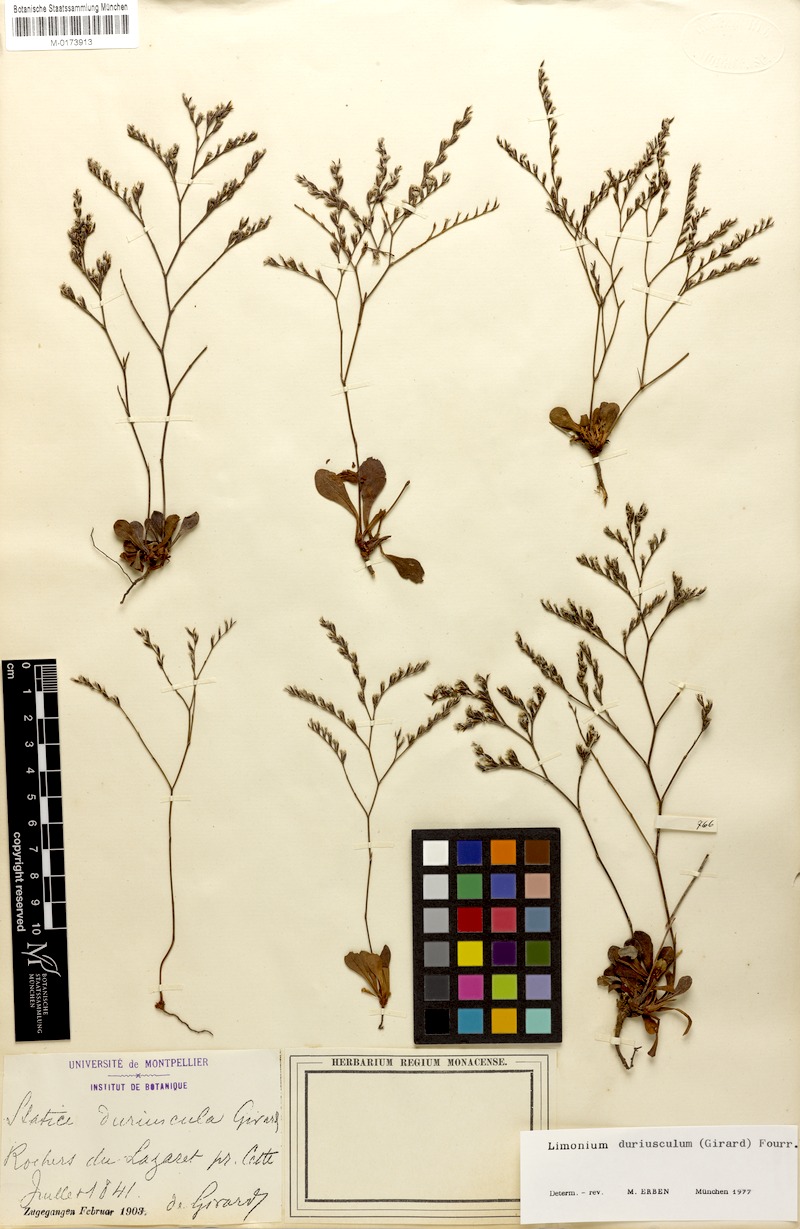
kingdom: Plantae
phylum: Tracheophyta
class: Magnoliopsida
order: Caryophyllales
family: Plumbaginaceae
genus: Limonium
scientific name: Limonium duriusculum
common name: European sea lavendar
